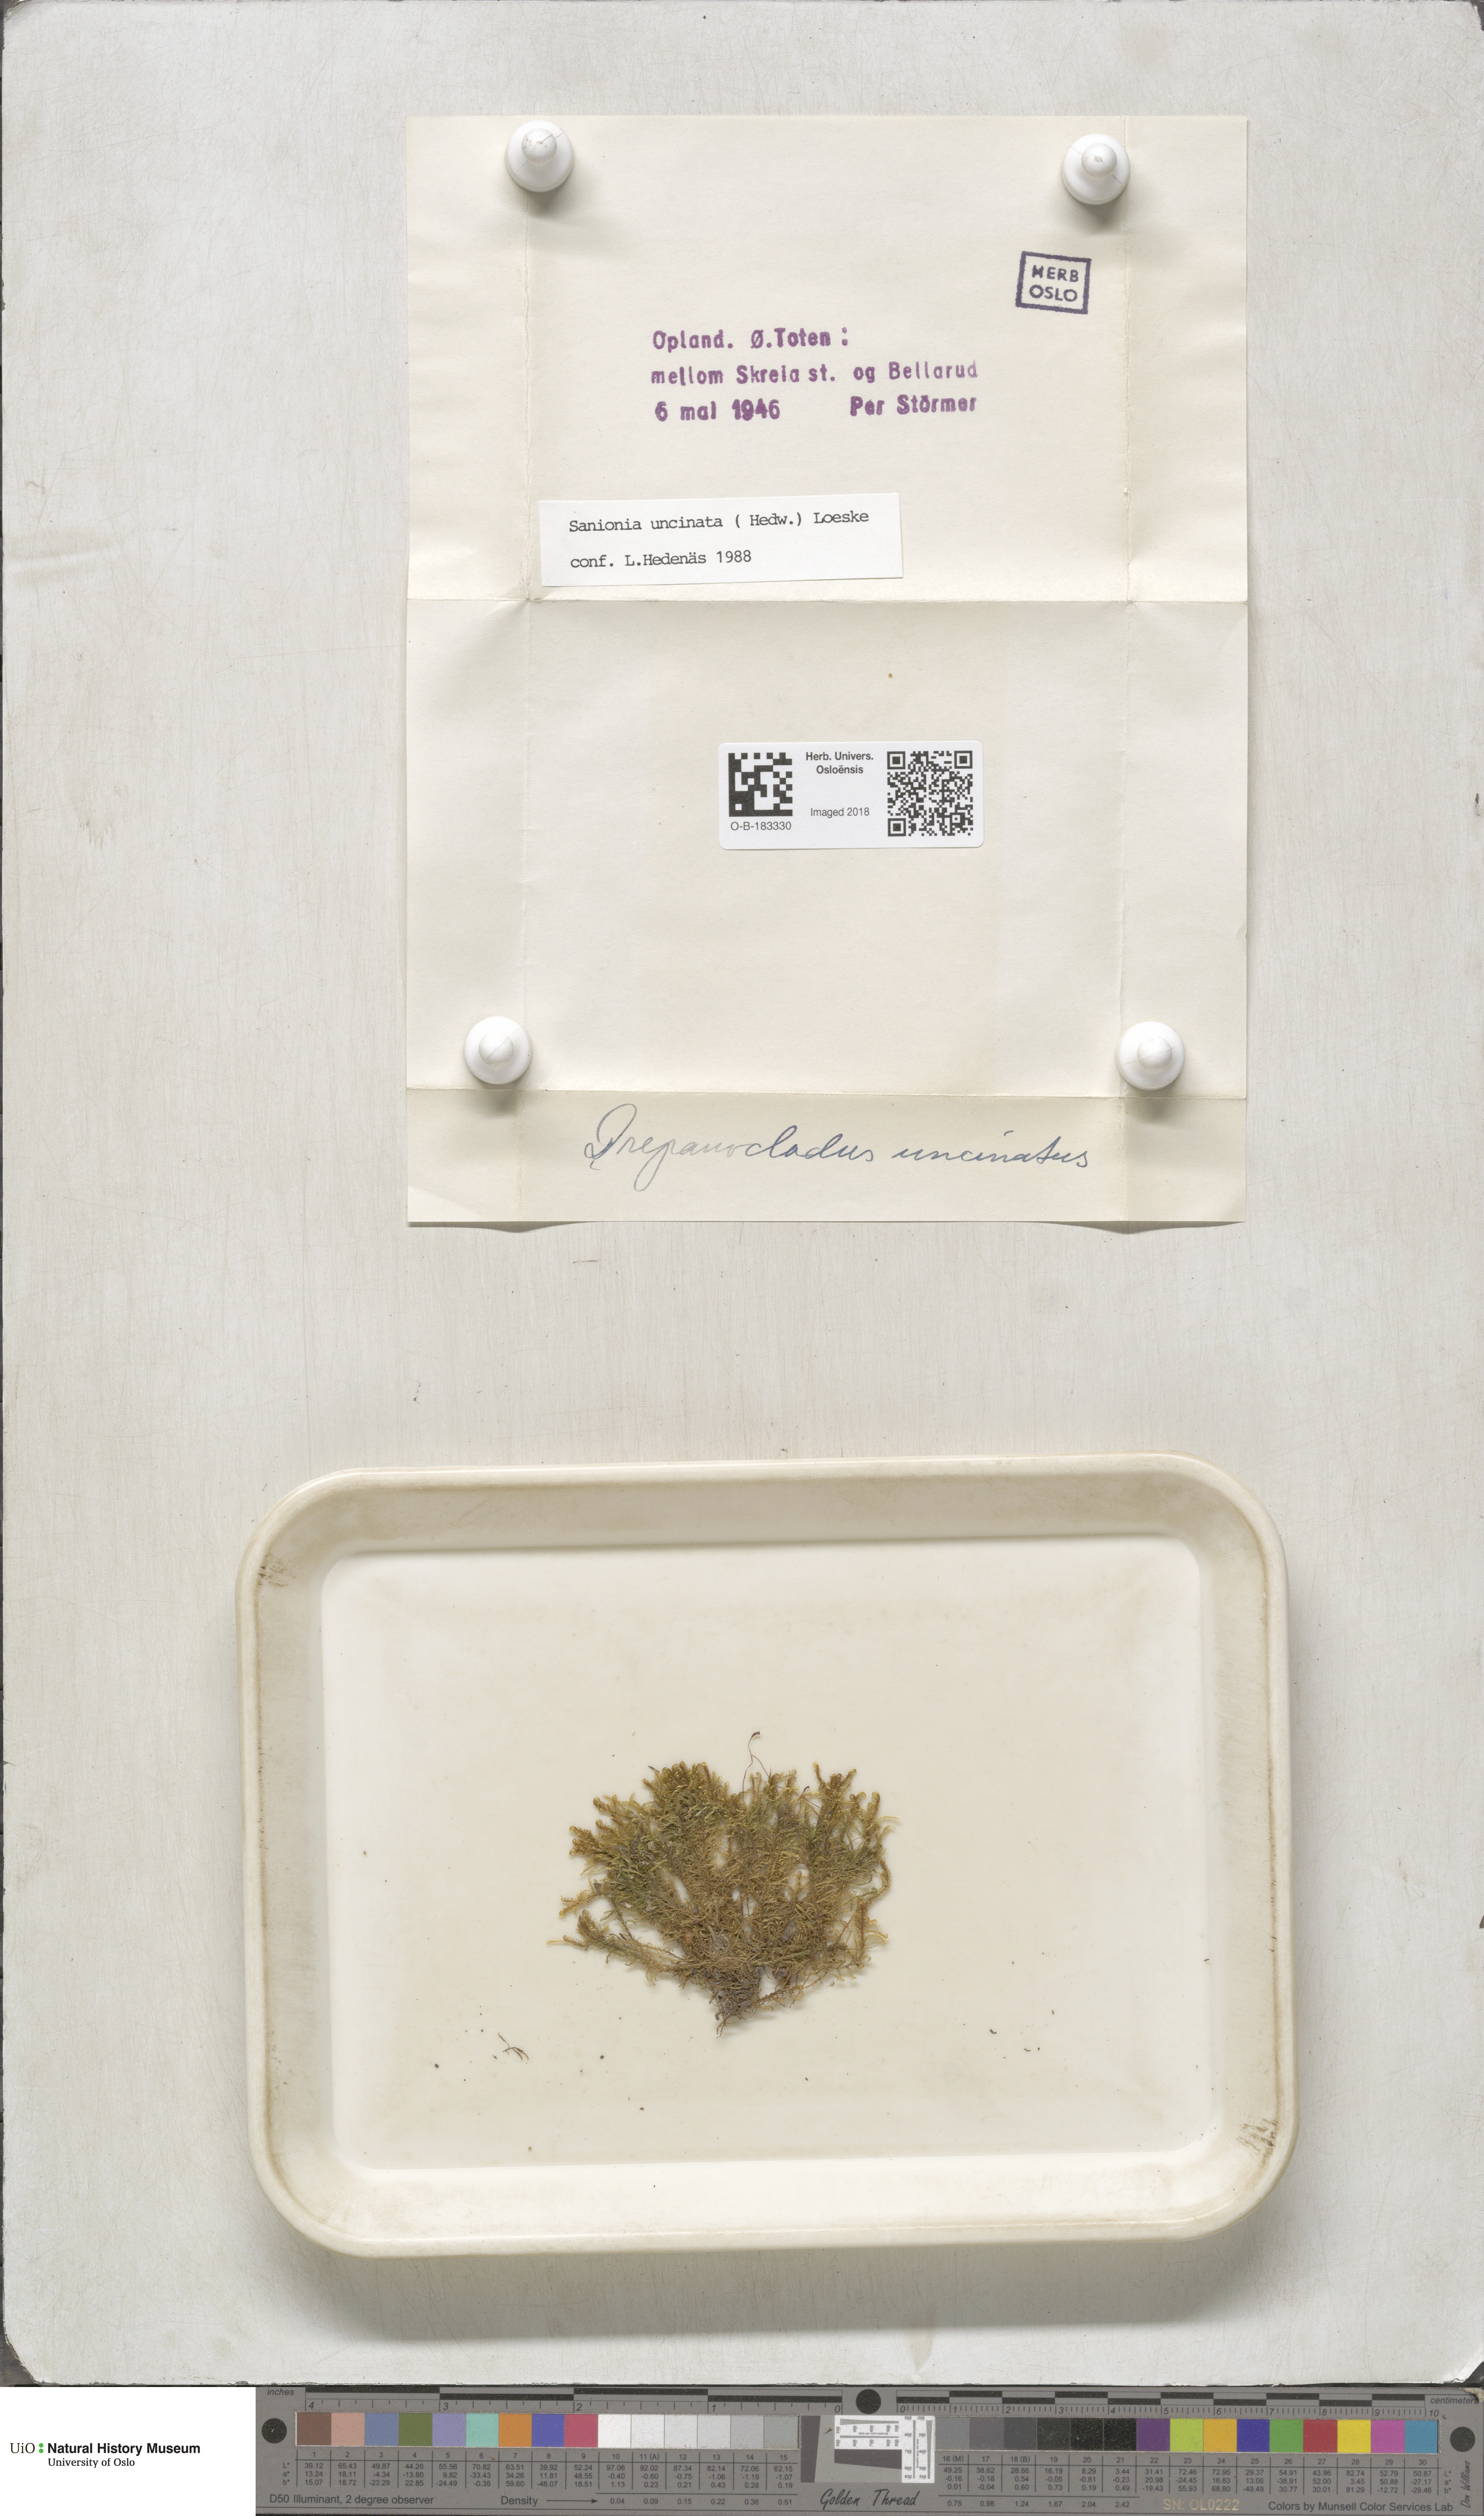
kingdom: Plantae
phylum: Bryophyta
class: Bryopsida
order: Hypnales
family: Scorpidiaceae
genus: Sanionia
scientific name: Sanionia uncinata
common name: Sickle moss
